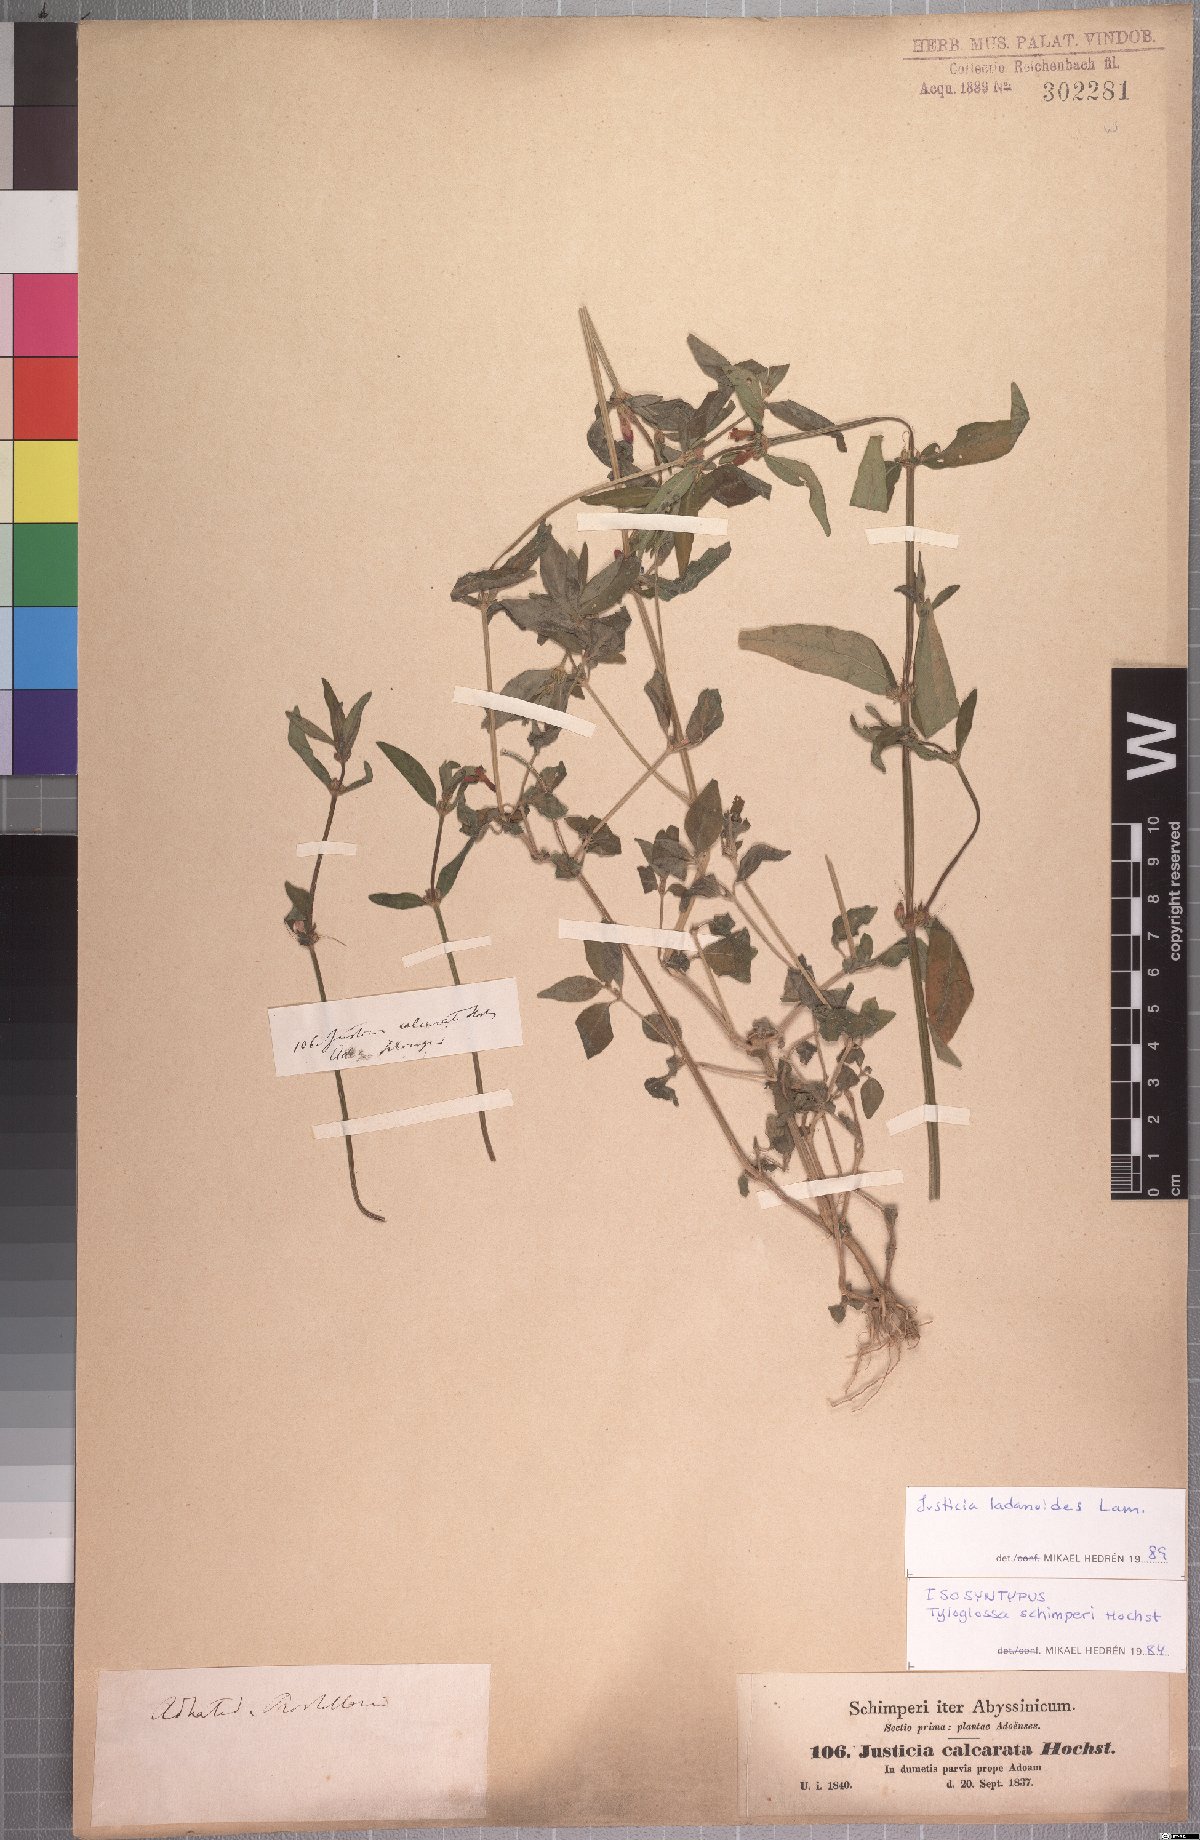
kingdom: Plantae
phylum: Tracheophyta
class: Magnoliopsida
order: Lamiales
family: Acanthaceae
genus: Justicia
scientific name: Justicia ladanoides
